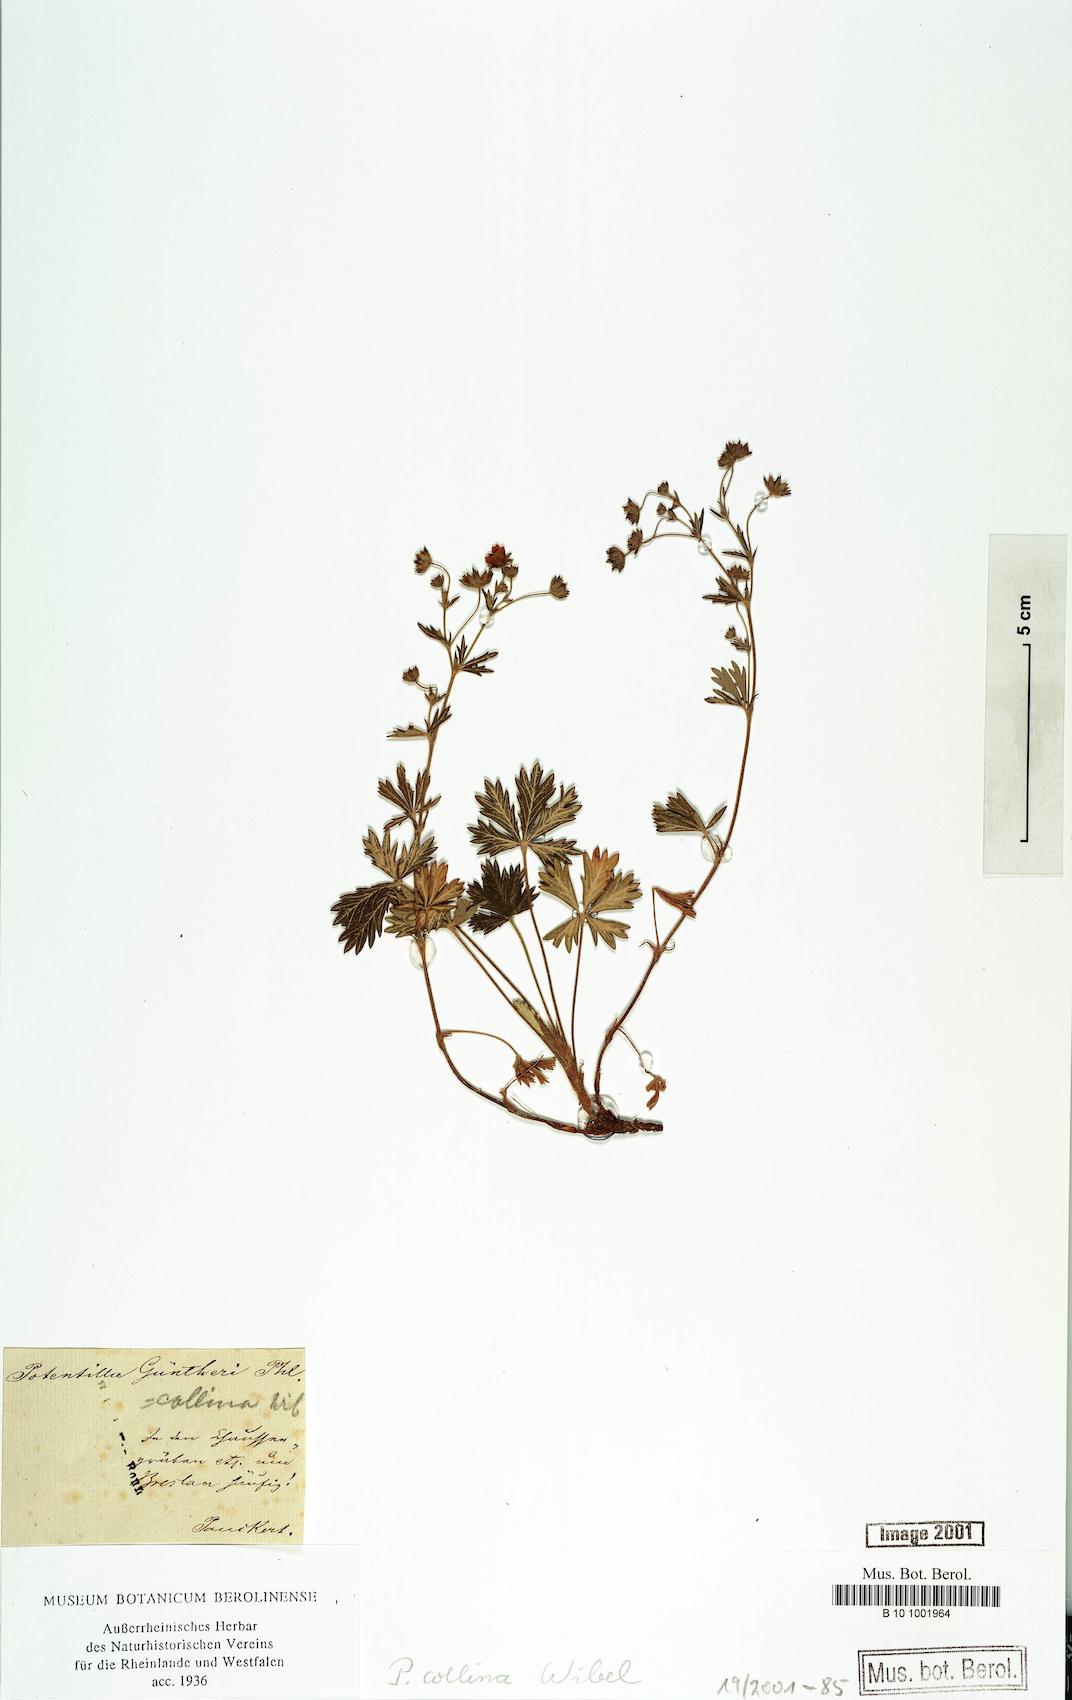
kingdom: Plantae
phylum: Tracheophyta
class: Magnoliopsida
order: Rosales
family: Rosaceae
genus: Potentilla
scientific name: Potentilla collina
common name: Palmleaf cinquefoil
